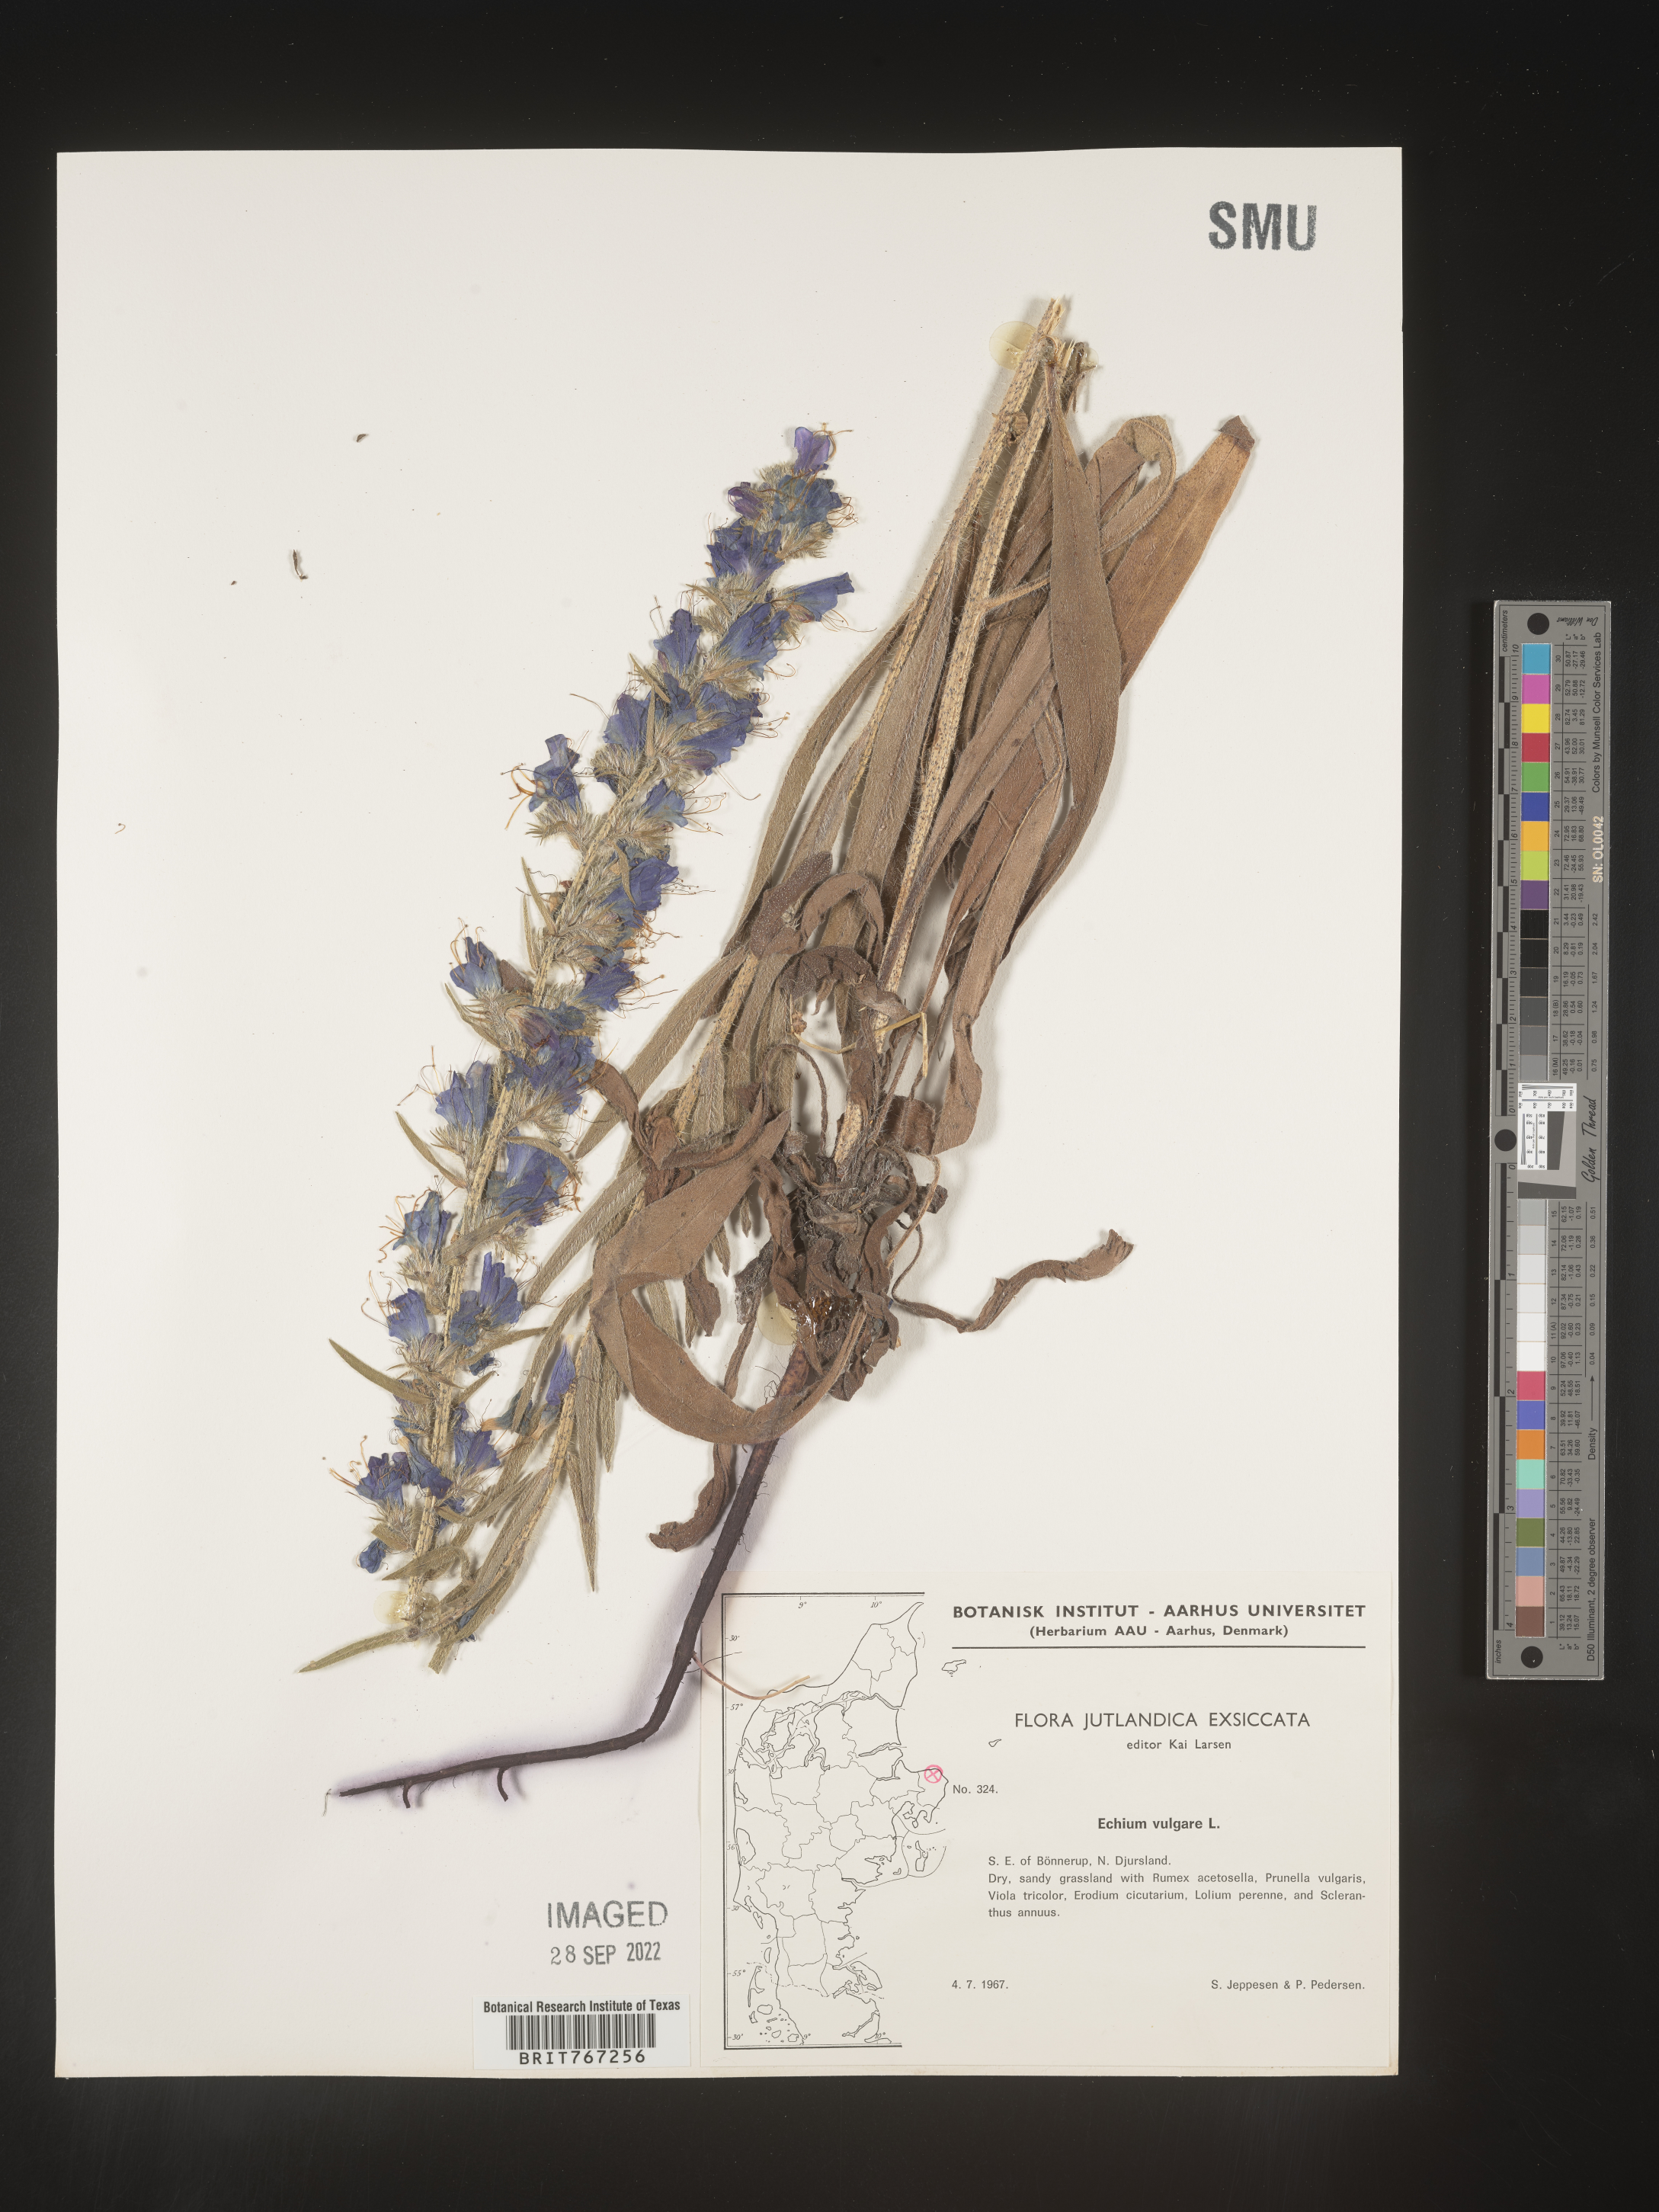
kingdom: Plantae
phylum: Tracheophyta
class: Magnoliopsida
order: Boraginales
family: Boraginaceae
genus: Echium
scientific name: Echium
